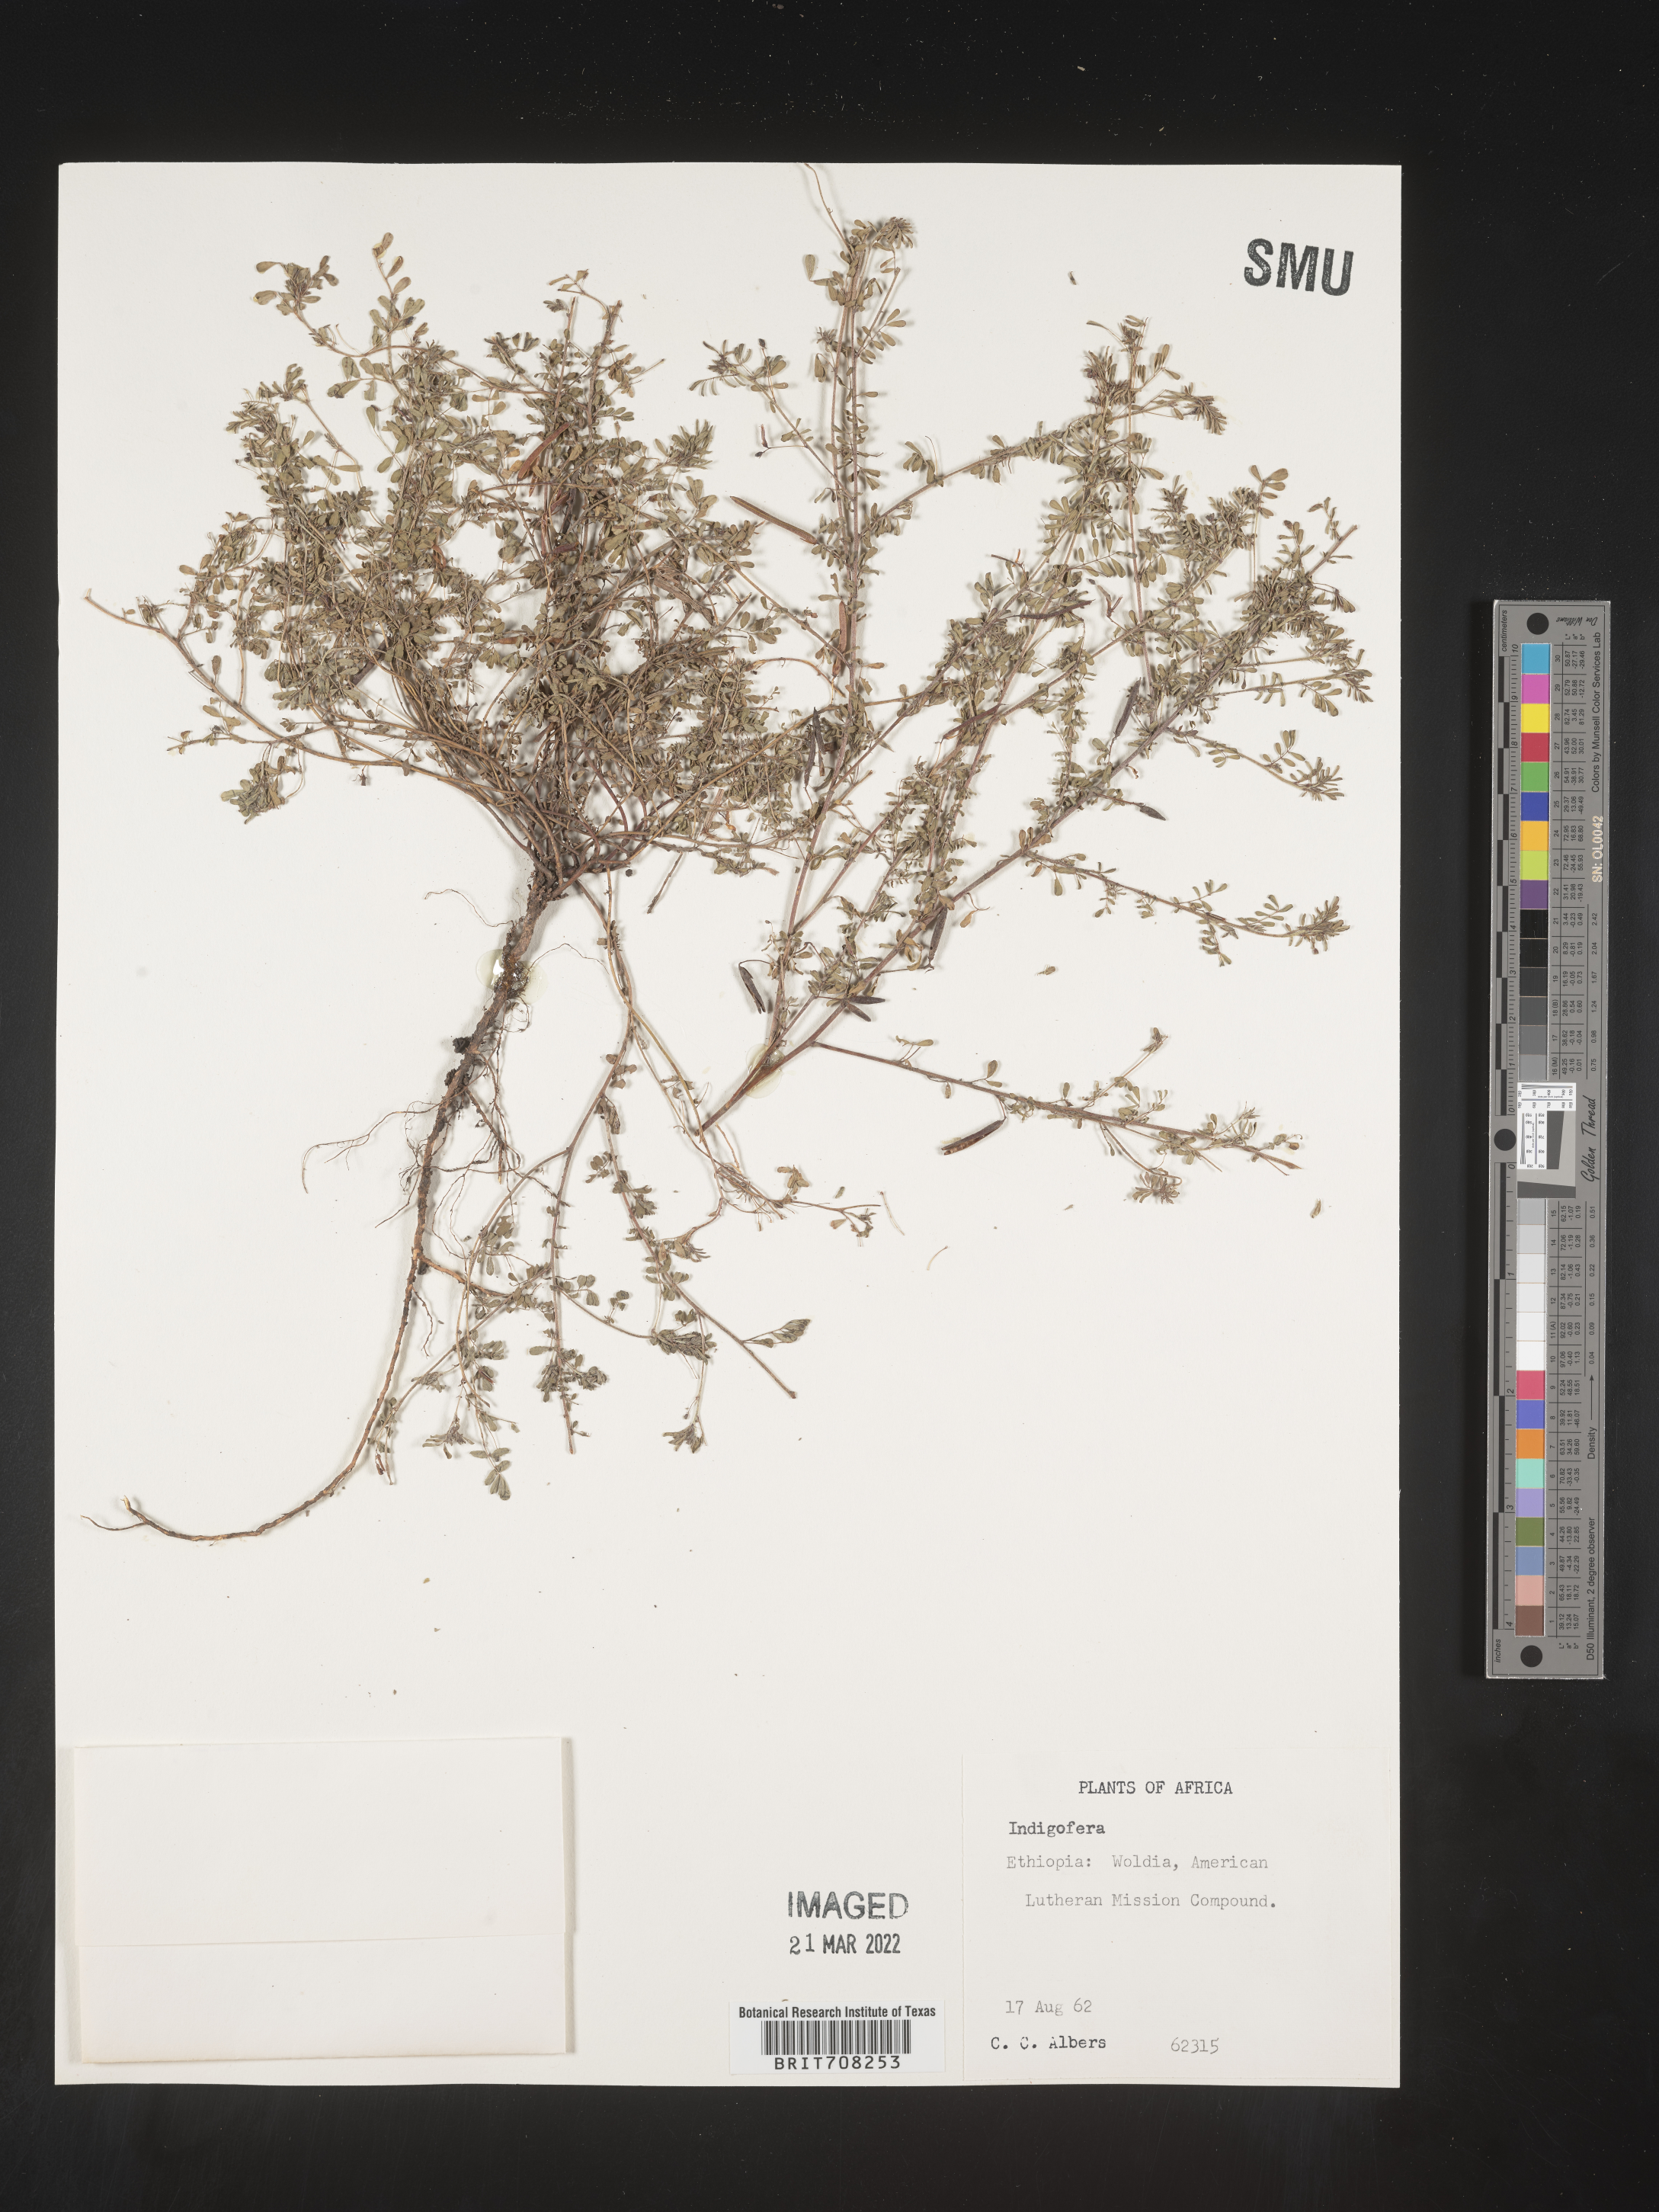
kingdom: Plantae
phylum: Tracheophyta
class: Magnoliopsida
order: Fabales
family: Fabaceae
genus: Indigofera
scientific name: Indigofera
